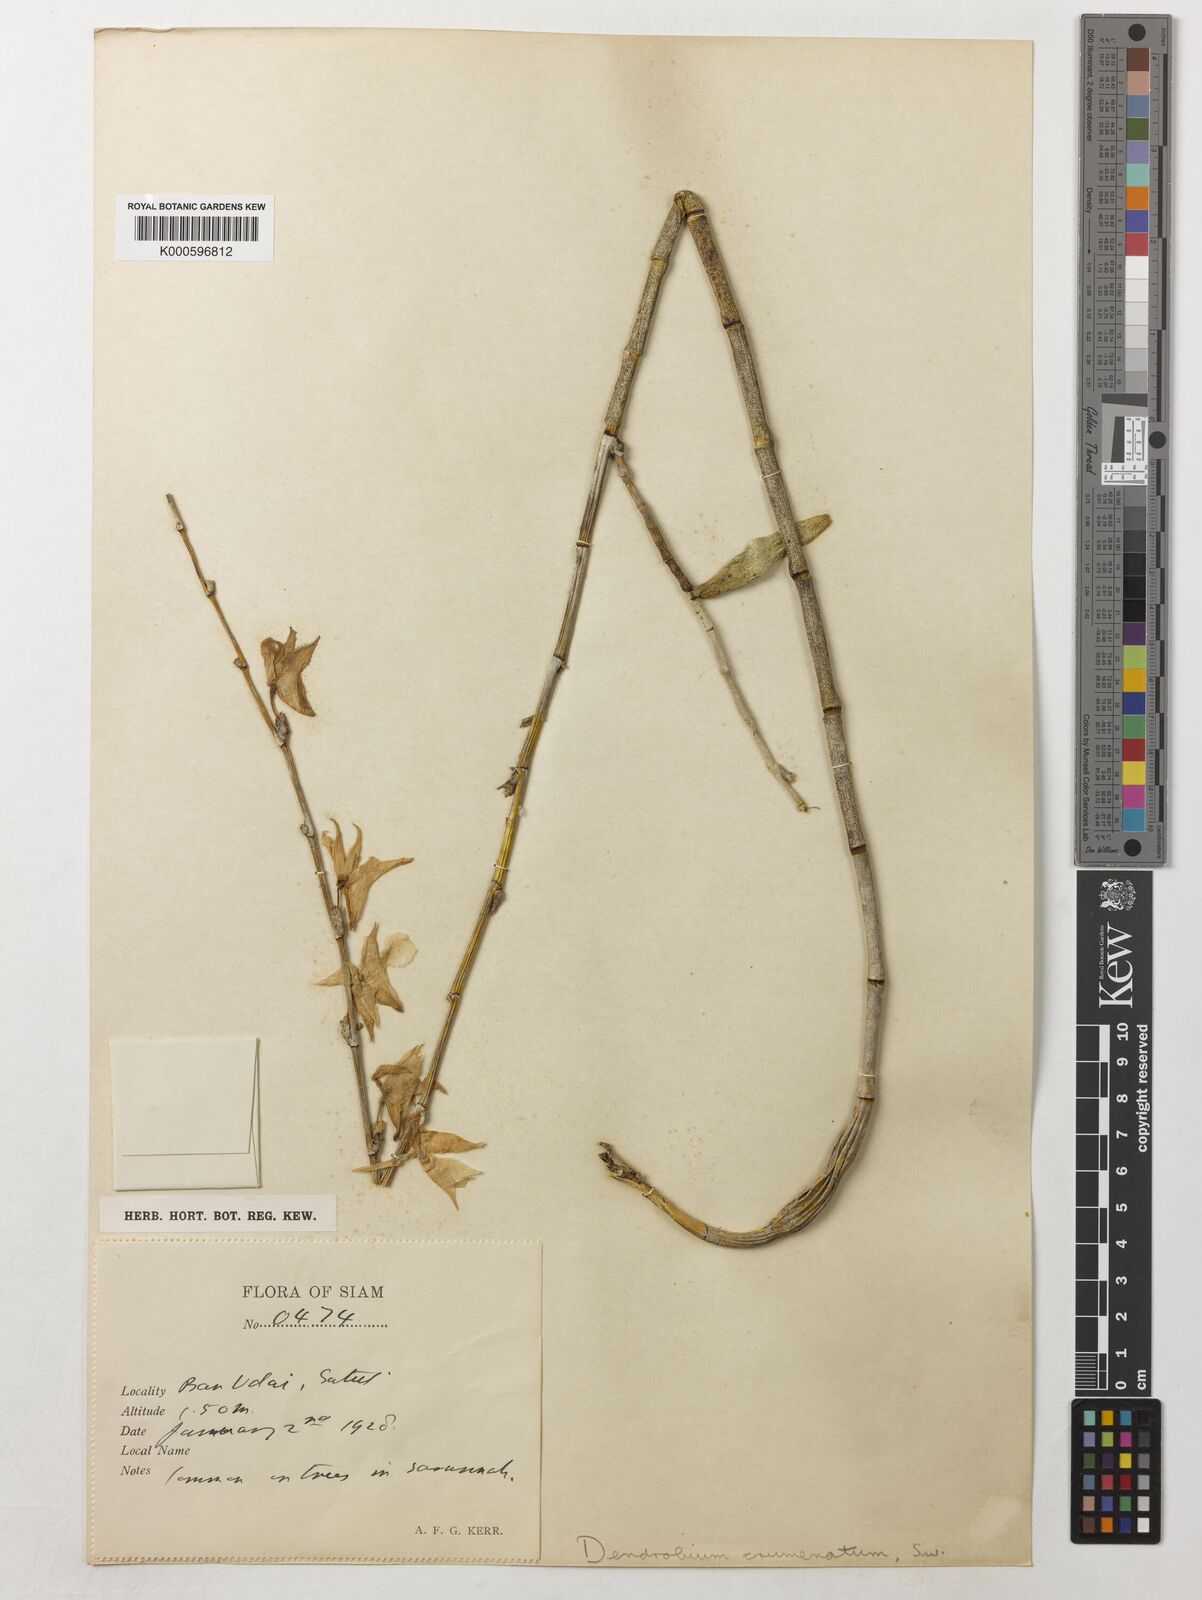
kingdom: Plantae
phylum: Tracheophyta
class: Liliopsida
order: Asparagales
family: Orchidaceae
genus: Dendrobium
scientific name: Dendrobium crumenatum
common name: Orchid
